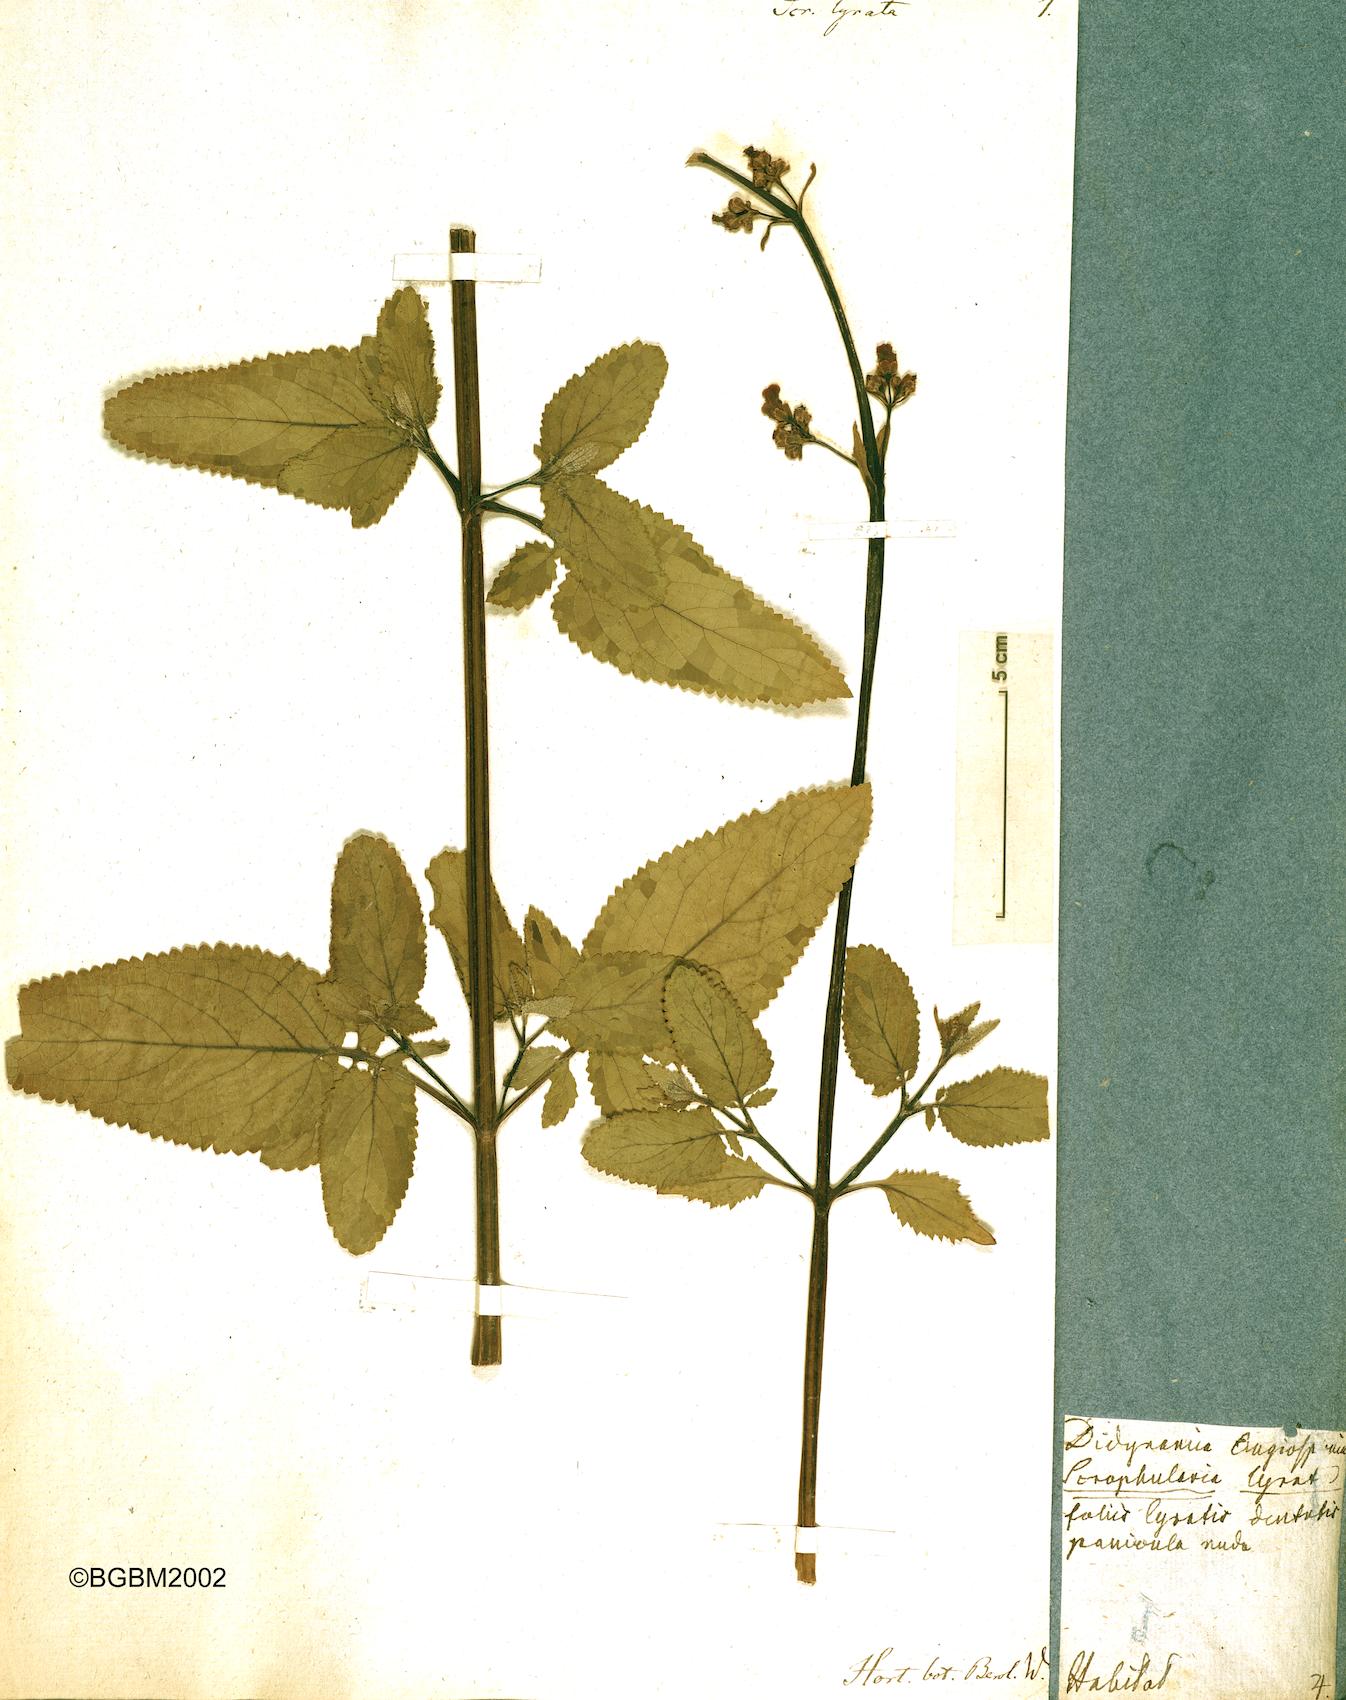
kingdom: Plantae
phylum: Tracheophyta
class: Magnoliopsida
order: Lamiales
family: Scrophulariaceae
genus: Scrophularia
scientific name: Scrophularia lyrata
